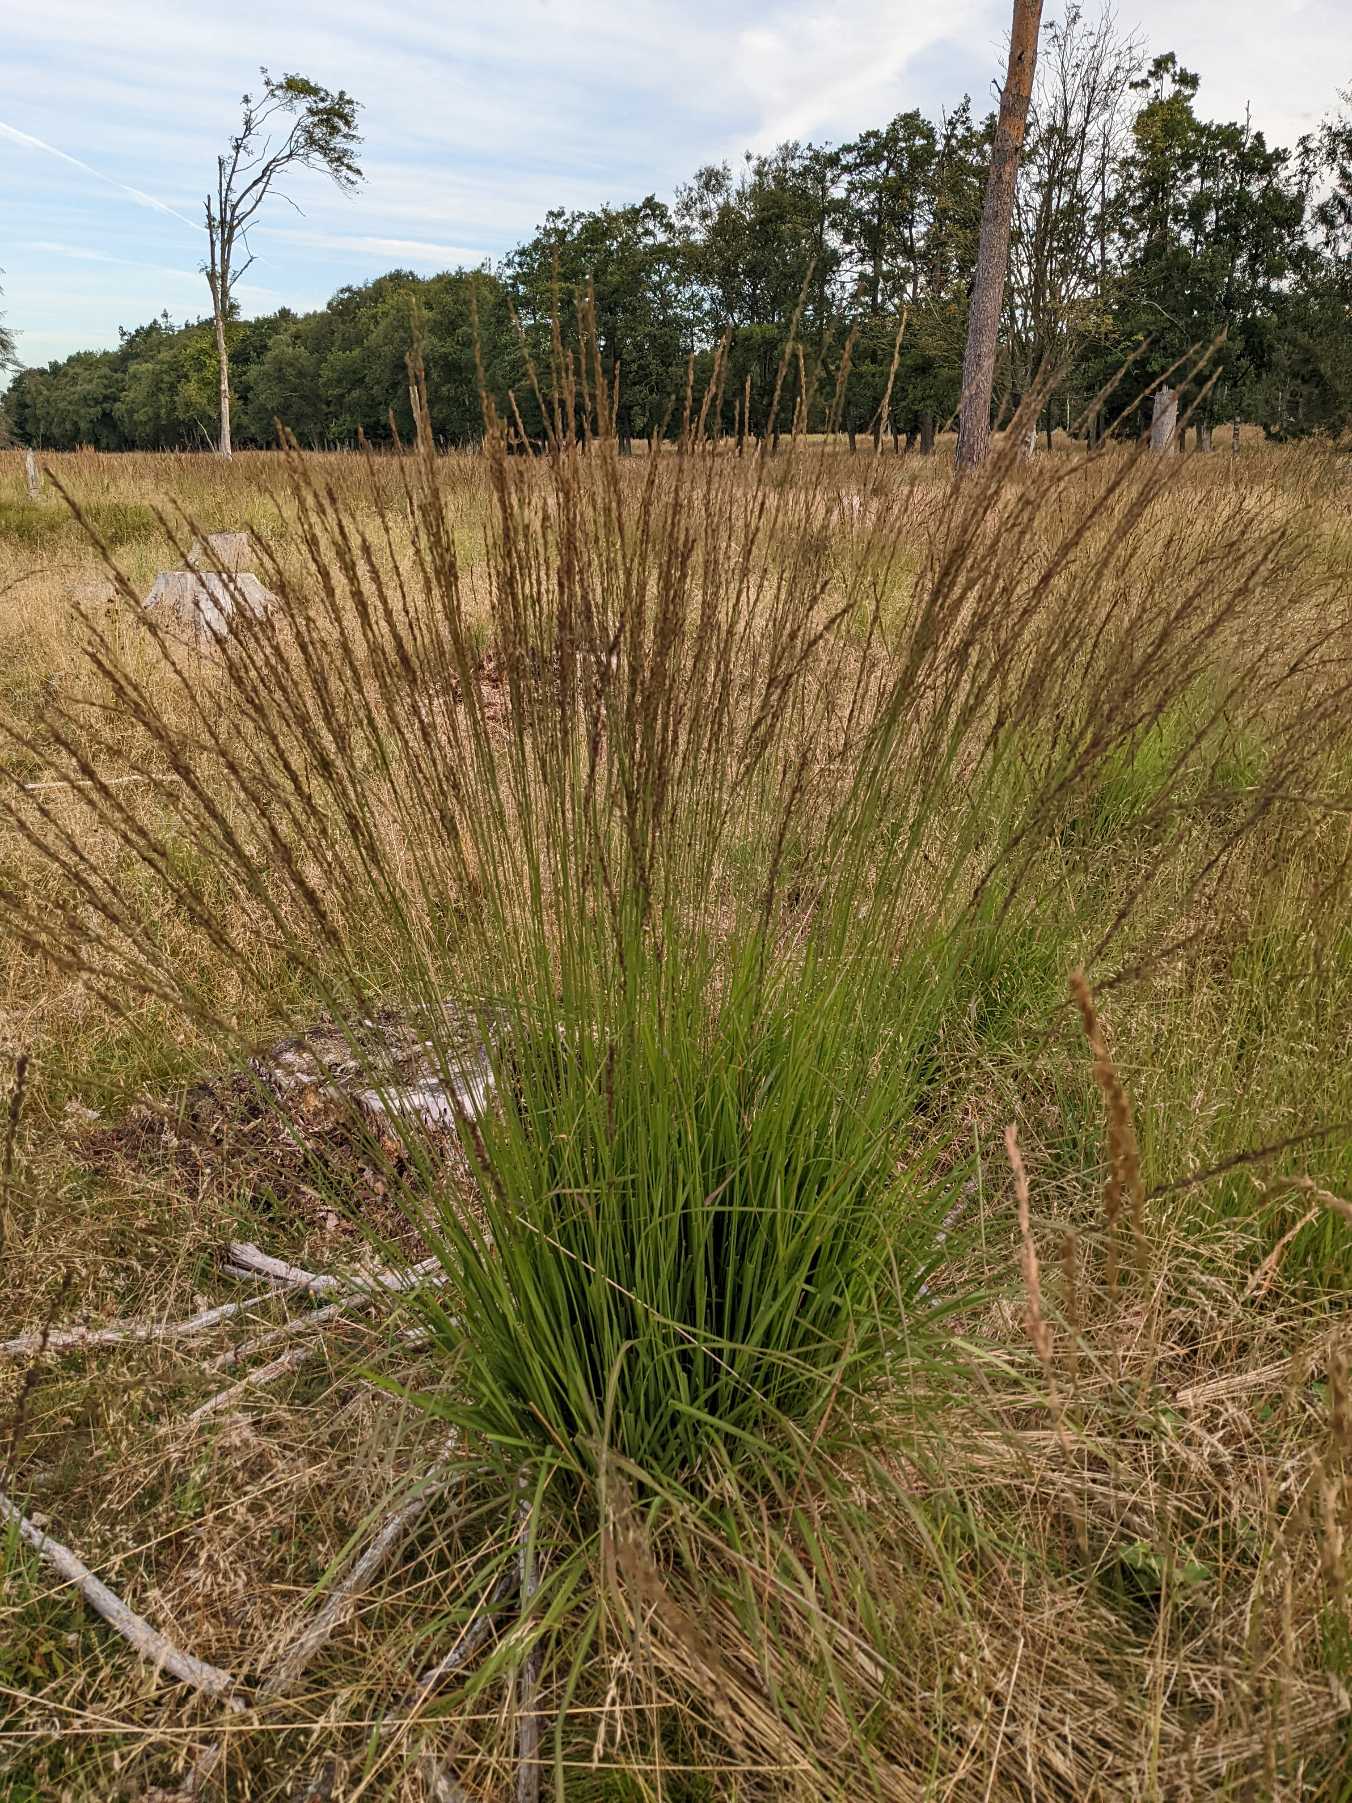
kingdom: Plantae
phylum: Tracheophyta
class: Liliopsida
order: Poales
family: Poaceae
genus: Molinia
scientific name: Molinia caerulea
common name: Blåtop
